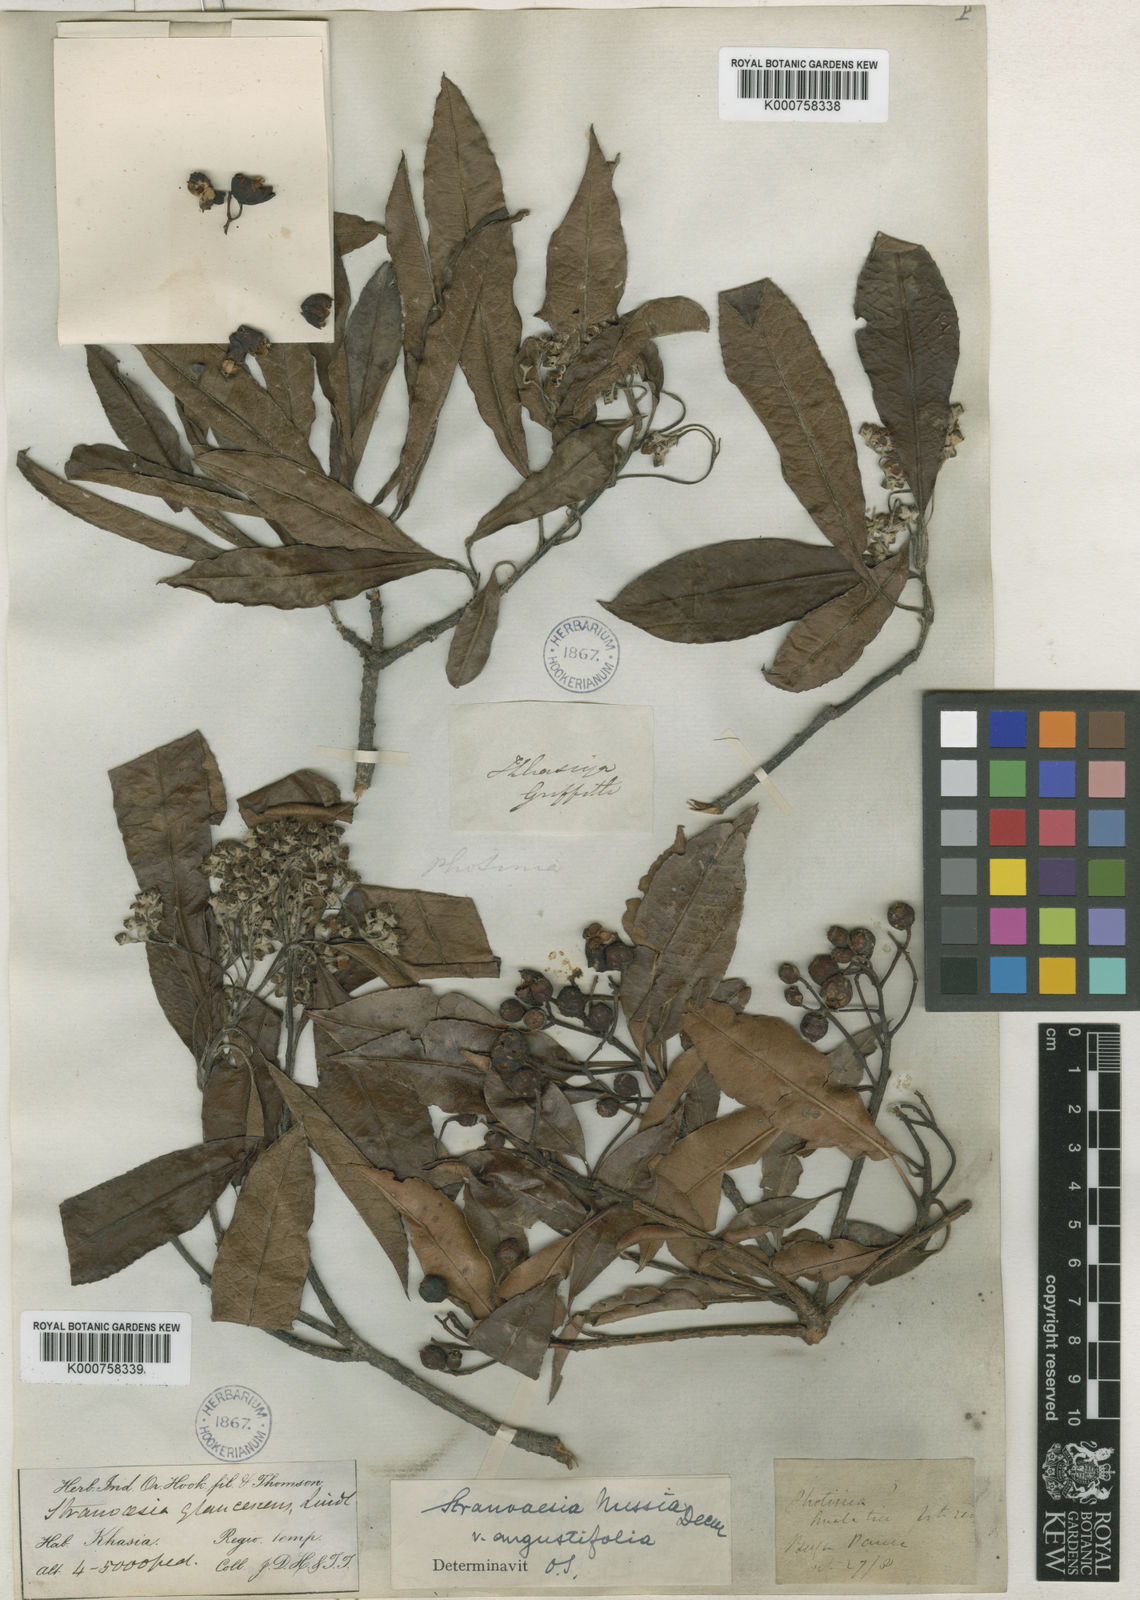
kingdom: Plantae
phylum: Tracheophyta
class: Magnoliopsida
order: Rosales
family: Rosaceae
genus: Stranvaesia
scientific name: Stranvaesia nussia
